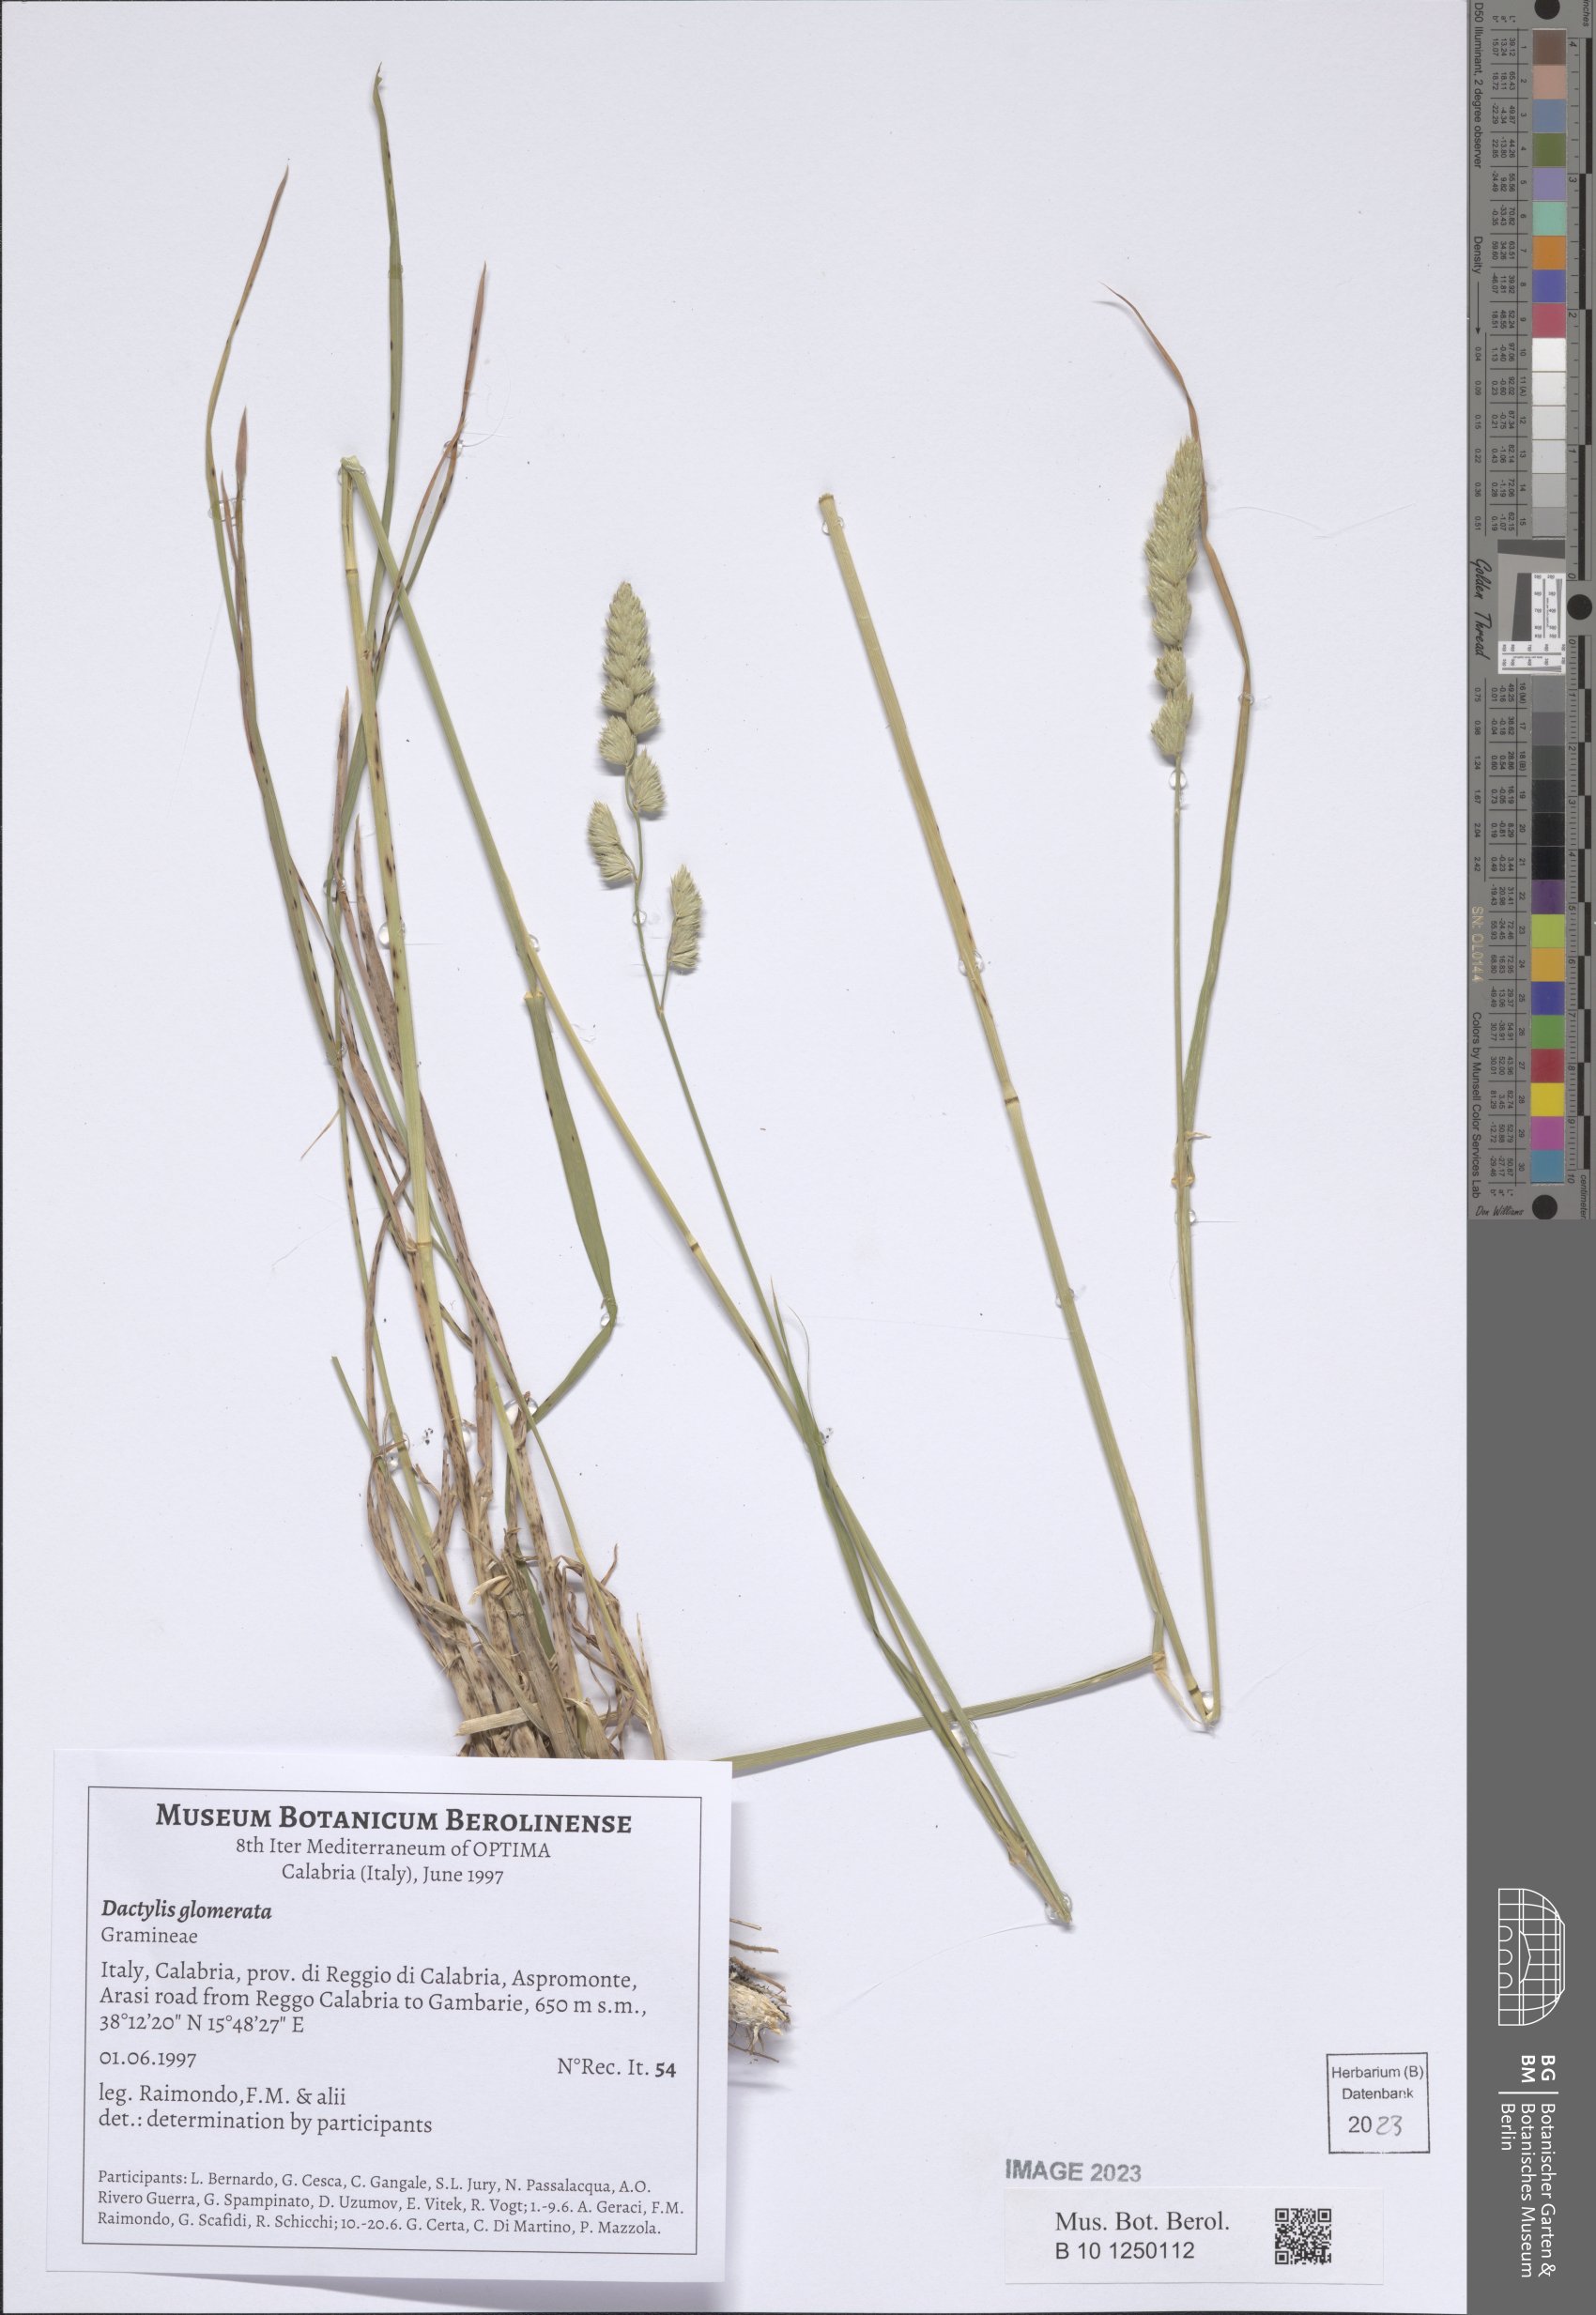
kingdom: Plantae
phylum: Tracheophyta
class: Liliopsida
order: Poales
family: Poaceae
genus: Dactylis
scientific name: Dactylis glomerata
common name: Orchardgrass
